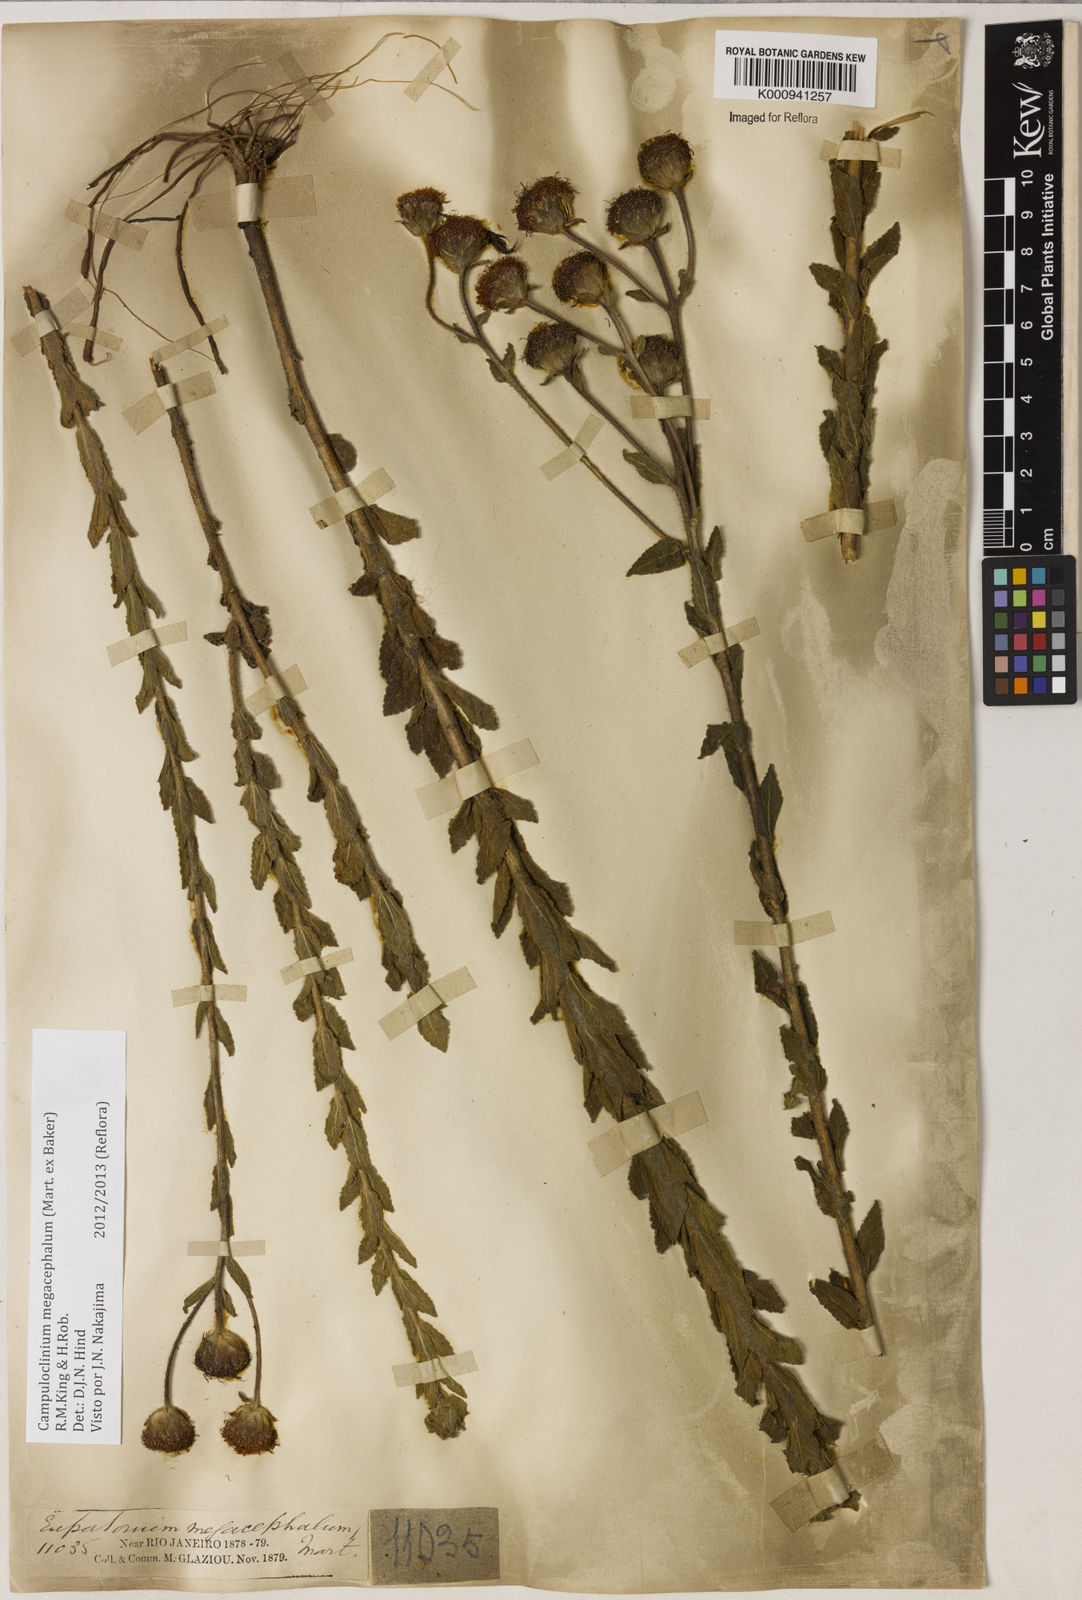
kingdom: Plantae
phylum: Tracheophyta
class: Magnoliopsida
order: Asterales
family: Asteraceae
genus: Campuloclinium
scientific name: Campuloclinium megacephalum
